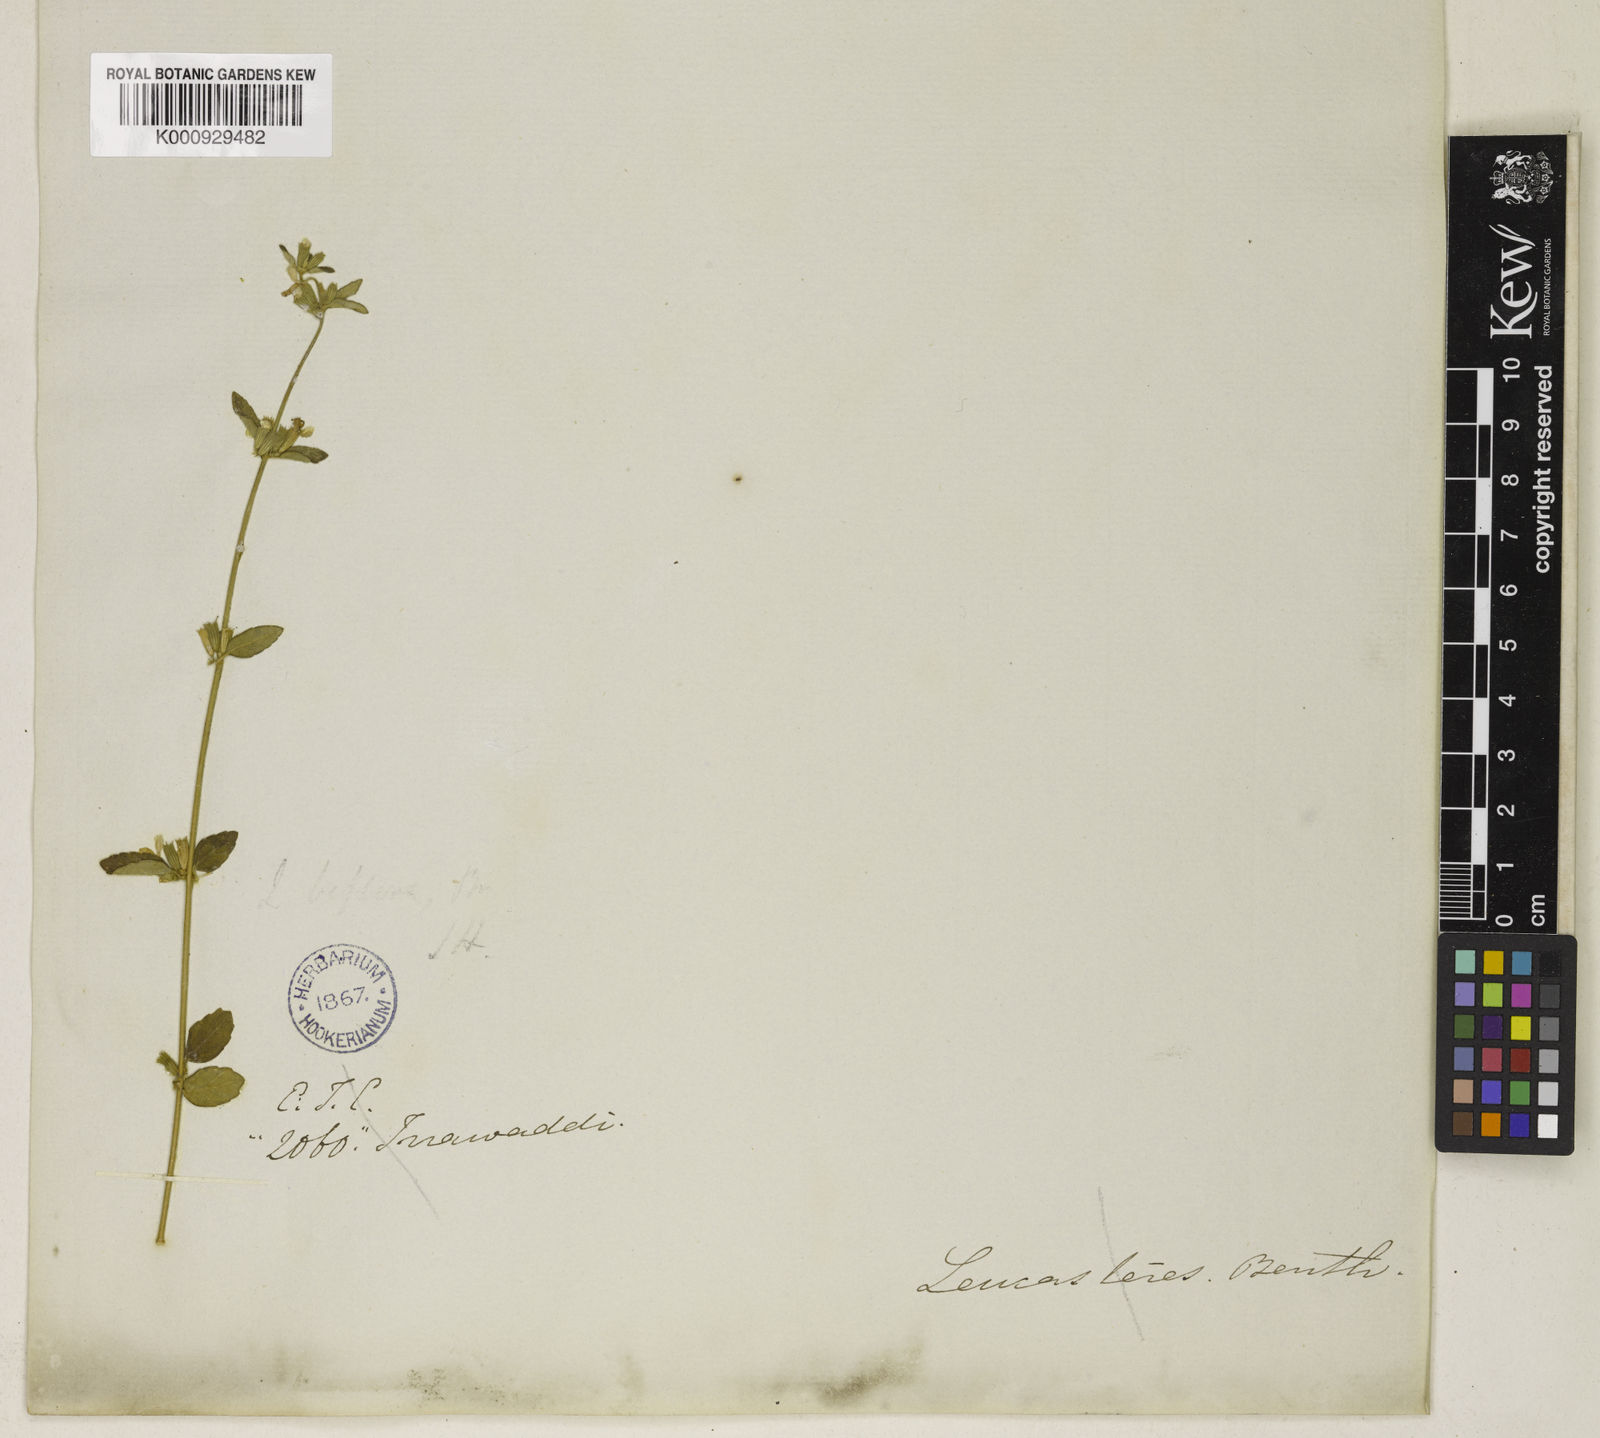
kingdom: Plantae
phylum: Tracheophyta
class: Magnoliopsida
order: Lamiales
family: Lamiaceae
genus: Leucas
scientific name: Leucas teres
